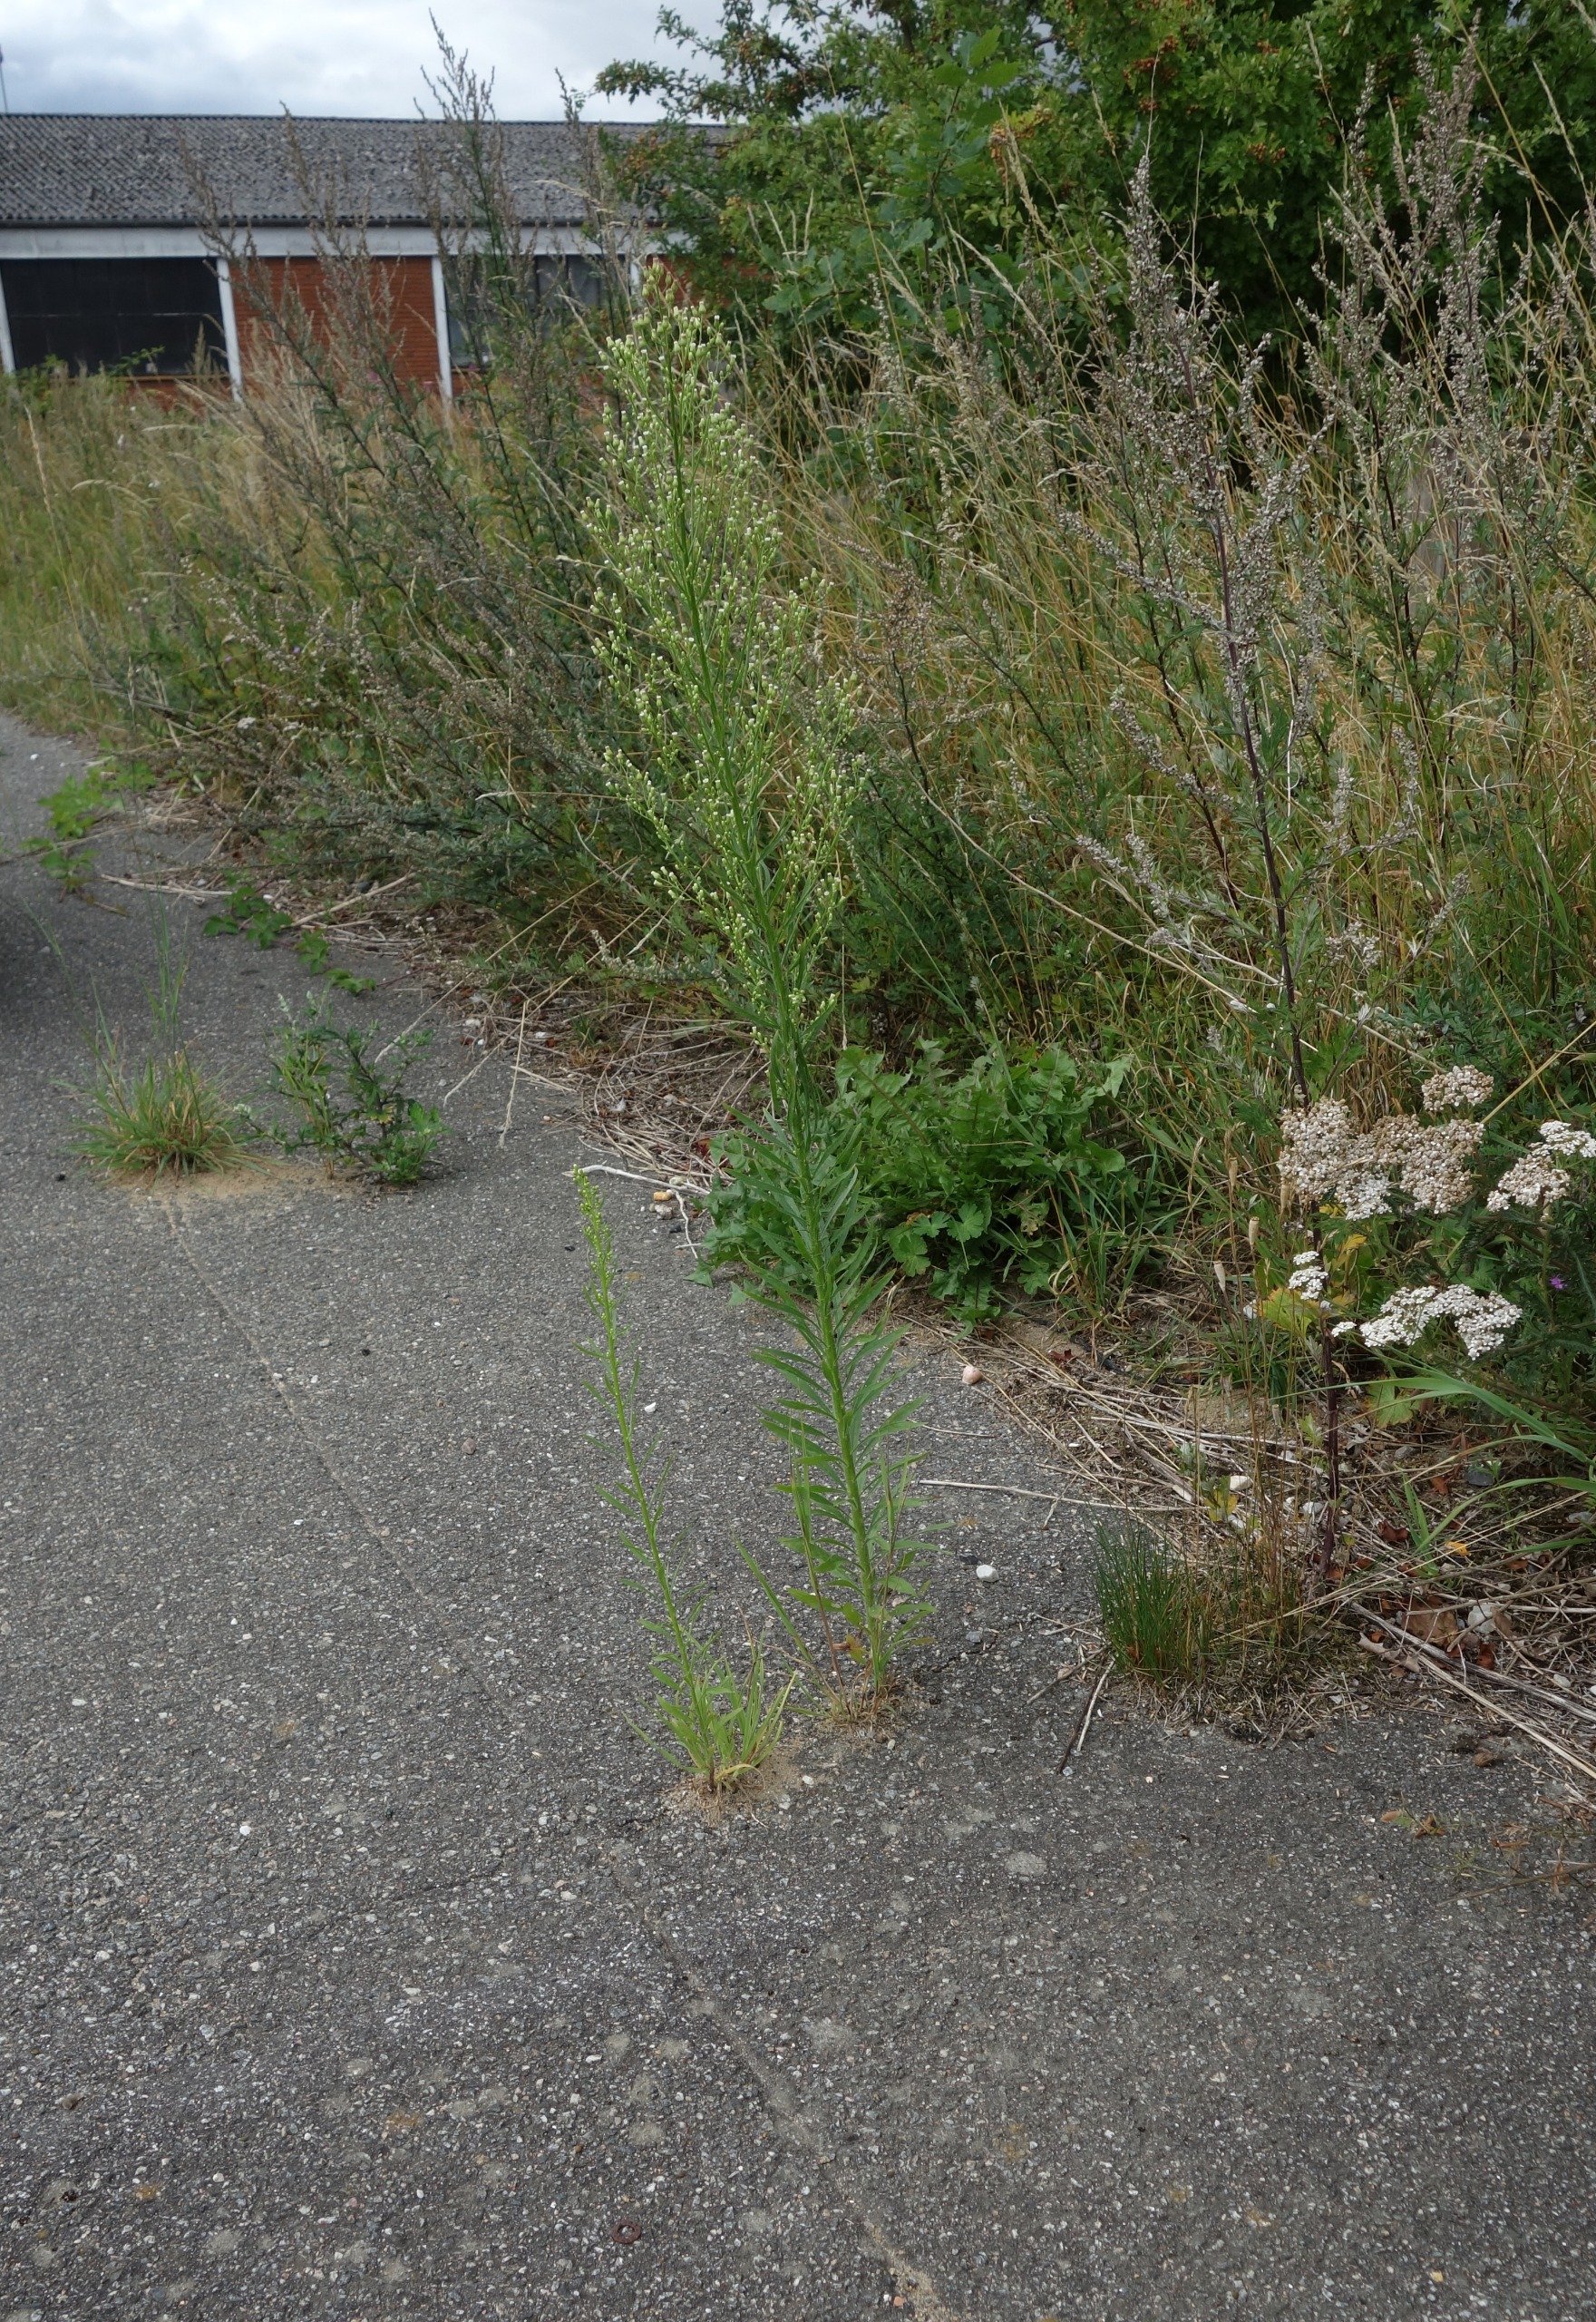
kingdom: Plantae
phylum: Tracheophyta
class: Magnoliopsida
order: Asterales
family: Asteraceae
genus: Erigeron
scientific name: Erigeron canadensis
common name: Kanadisk bakkestjerne
